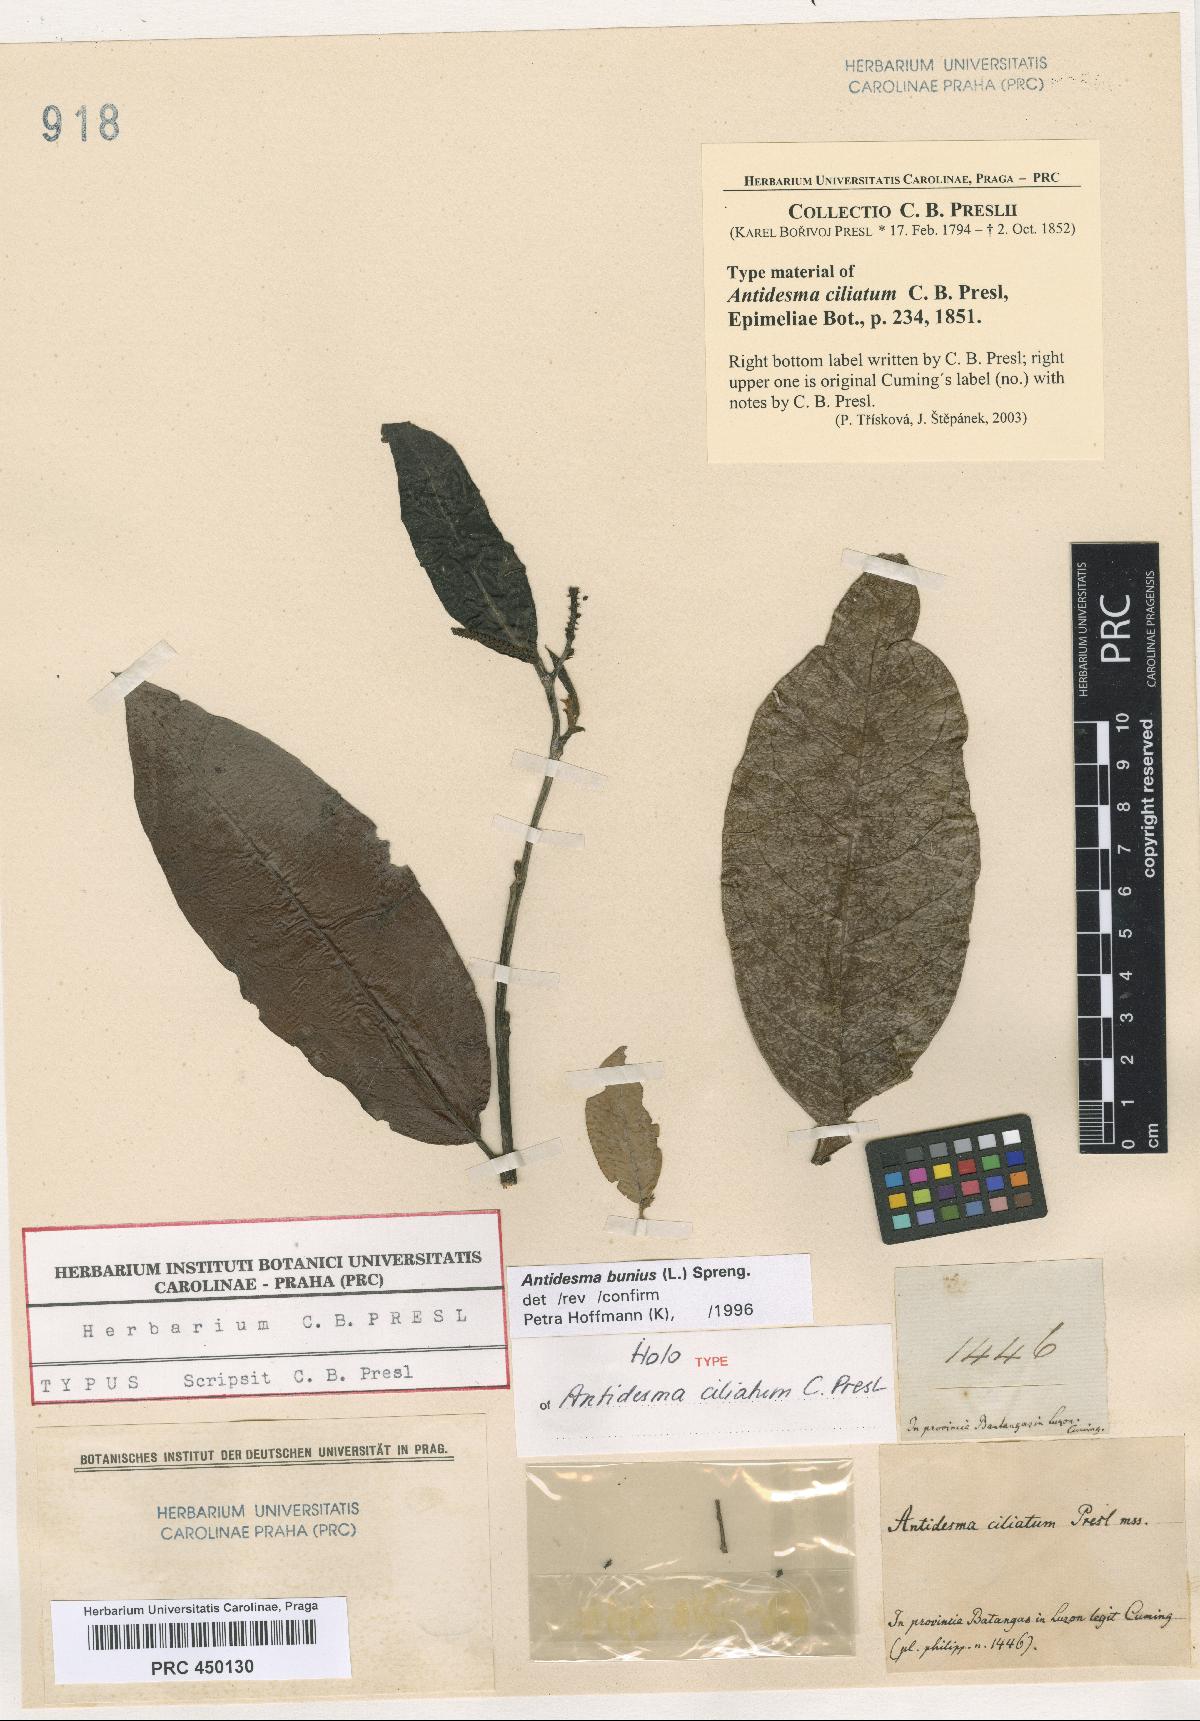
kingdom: Plantae
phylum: Tracheophyta
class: Magnoliopsida
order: Malpighiales
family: Phyllanthaceae
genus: Antidesma
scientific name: Antidesma bunius
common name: Chinese-laurel
